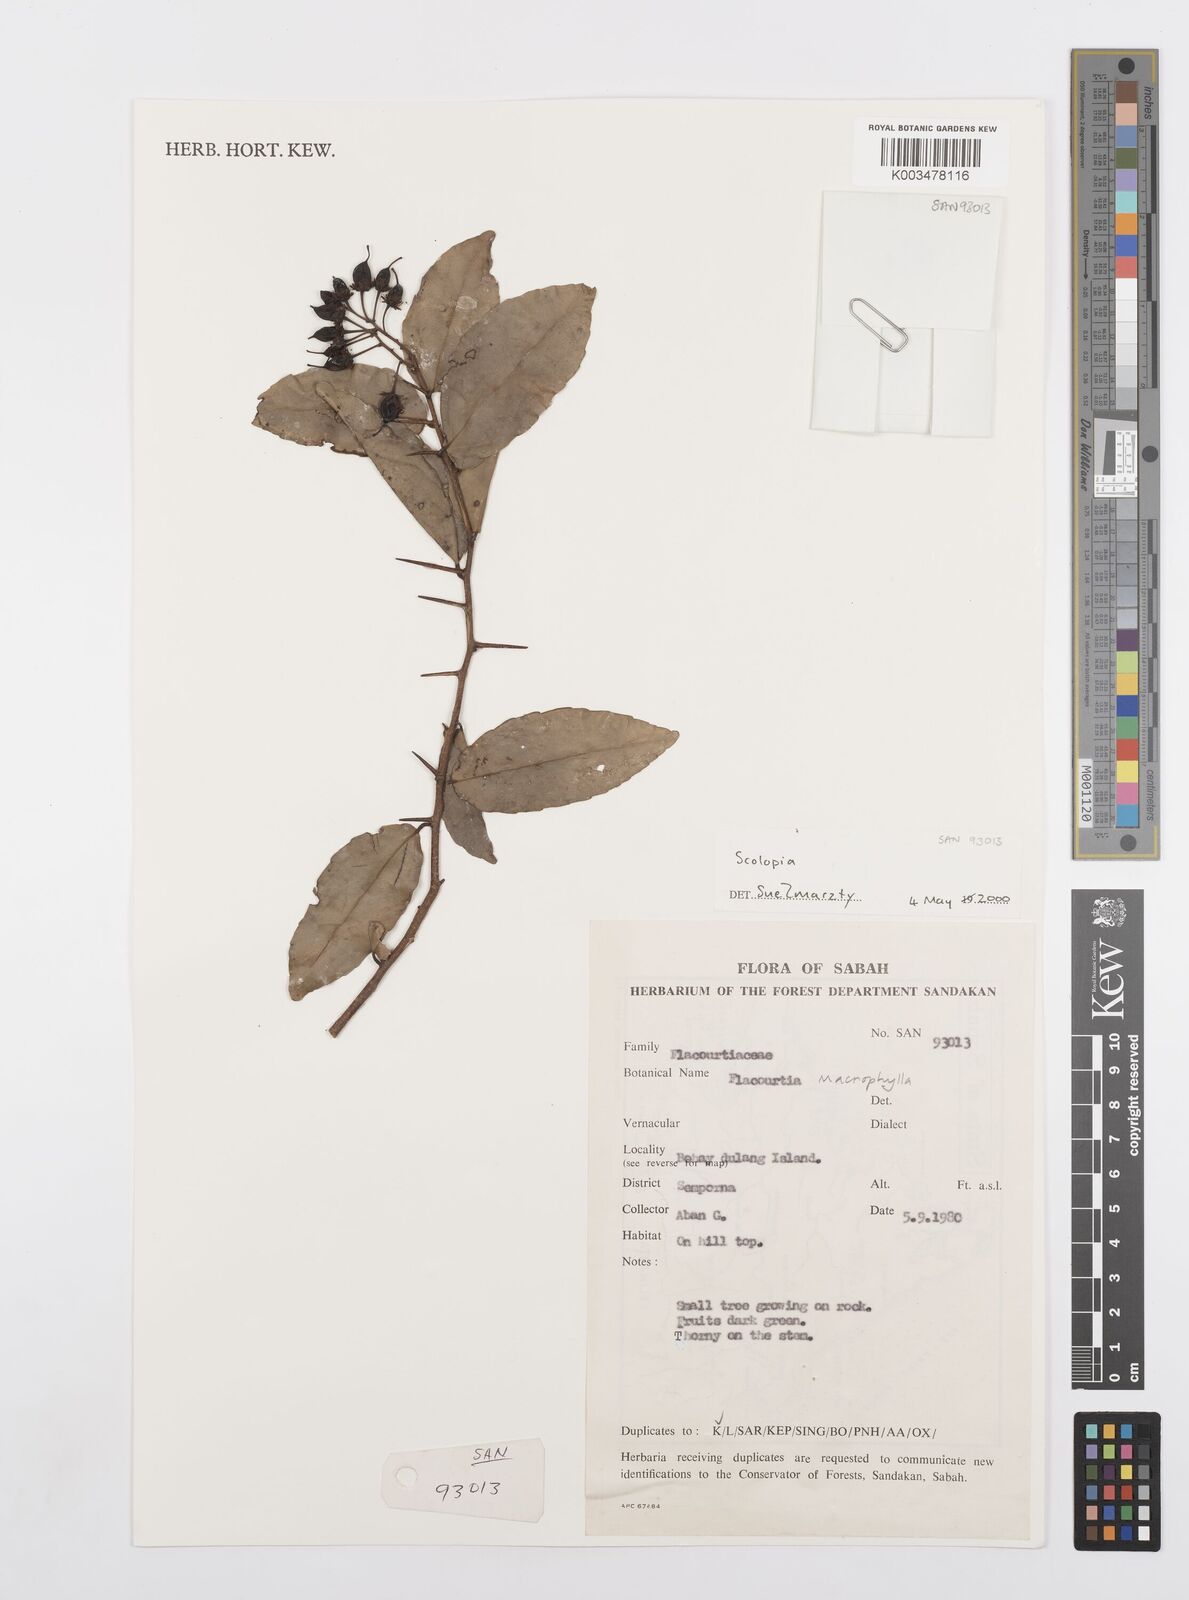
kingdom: Plantae
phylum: Tracheophyta
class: Magnoliopsida
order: Malpighiales
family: Salicaceae
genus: Scolopia
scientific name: Scolopia
